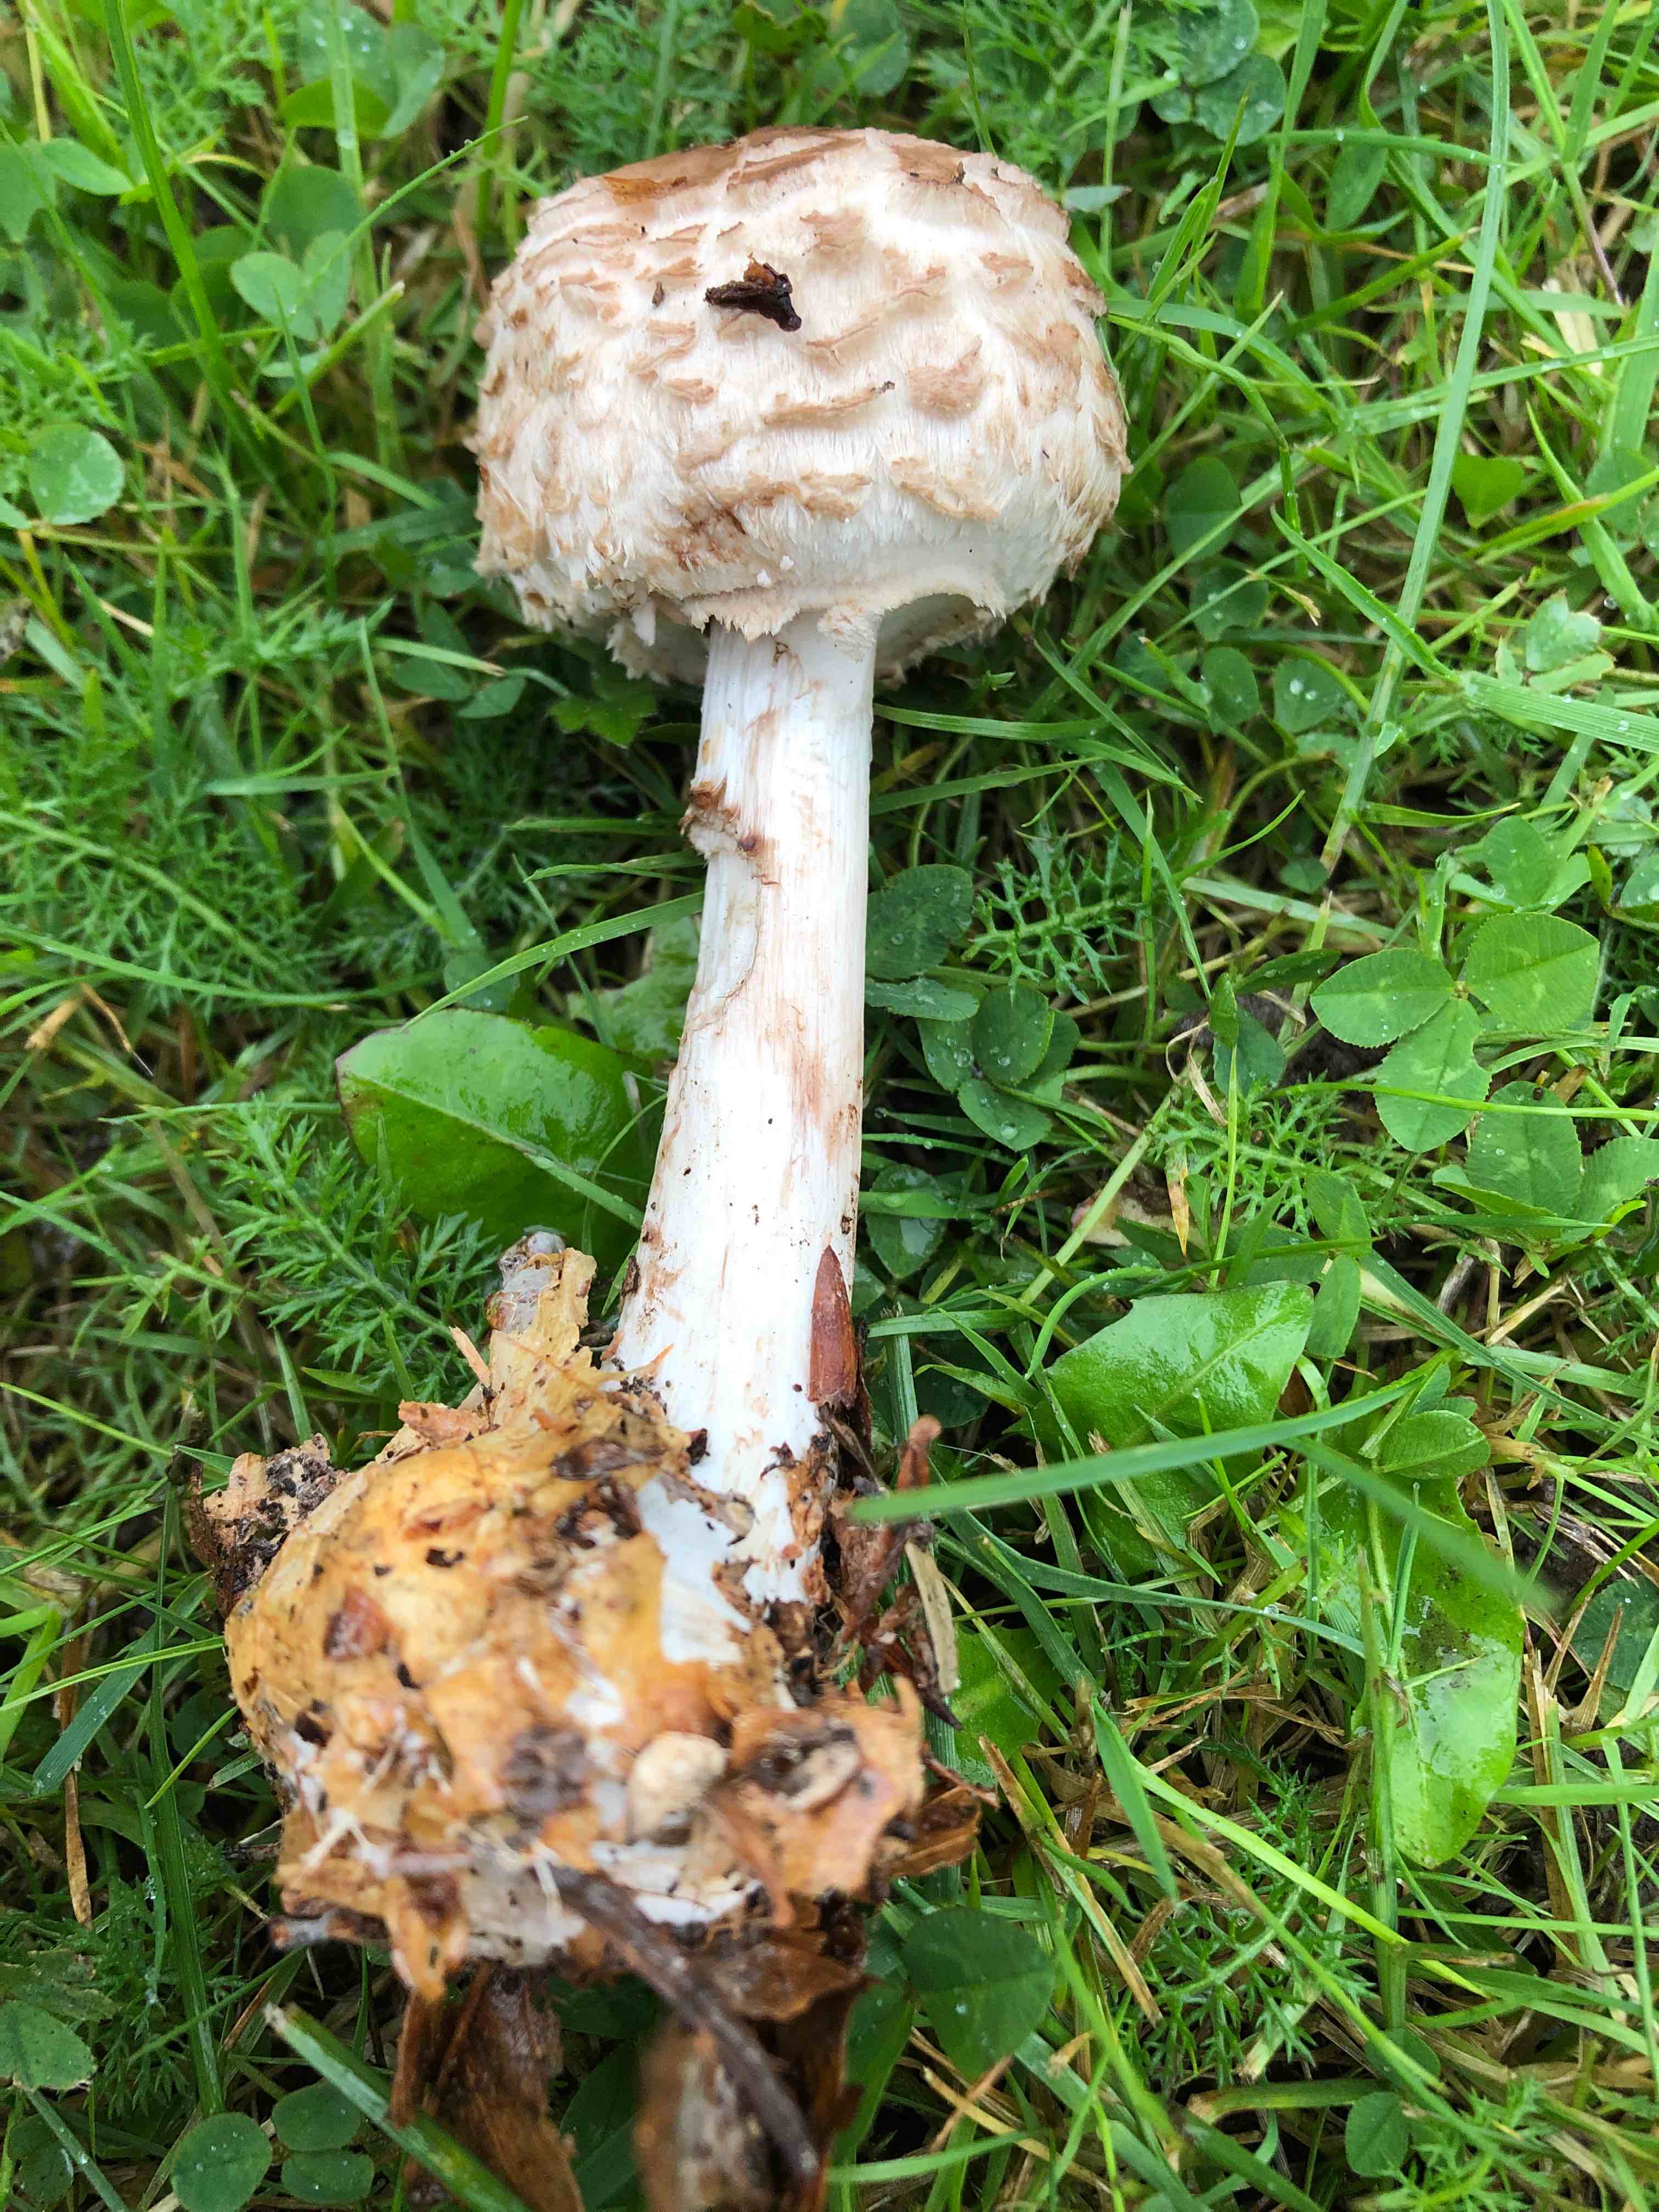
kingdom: Fungi
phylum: Basidiomycota
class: Agaricomycetes
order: Agaricales
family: Agaricaceae
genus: Chlorophyllum
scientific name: Chlorophyllum
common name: rabarberhat
